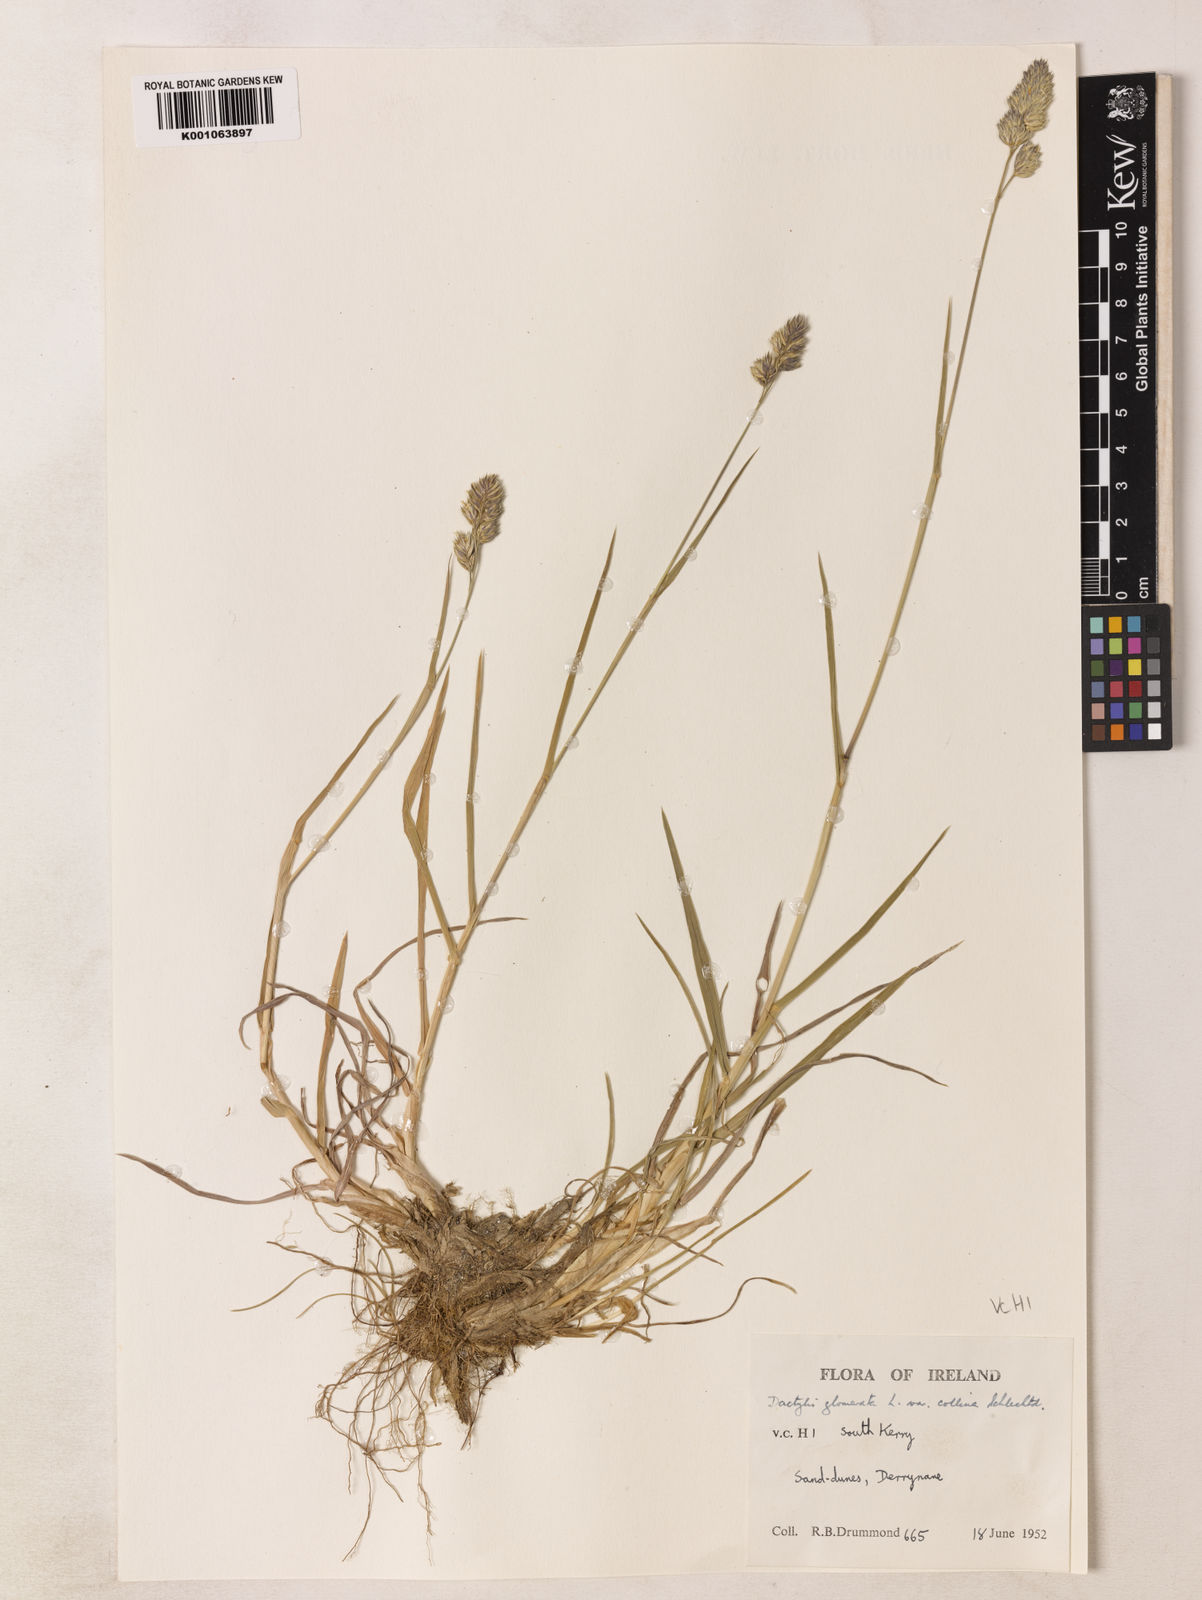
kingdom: Plantae
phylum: Tracheophyta
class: Liliopsida
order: Poales
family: Poaceae
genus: Dactylis
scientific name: Dactylis glomerata
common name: Orchardgrass
